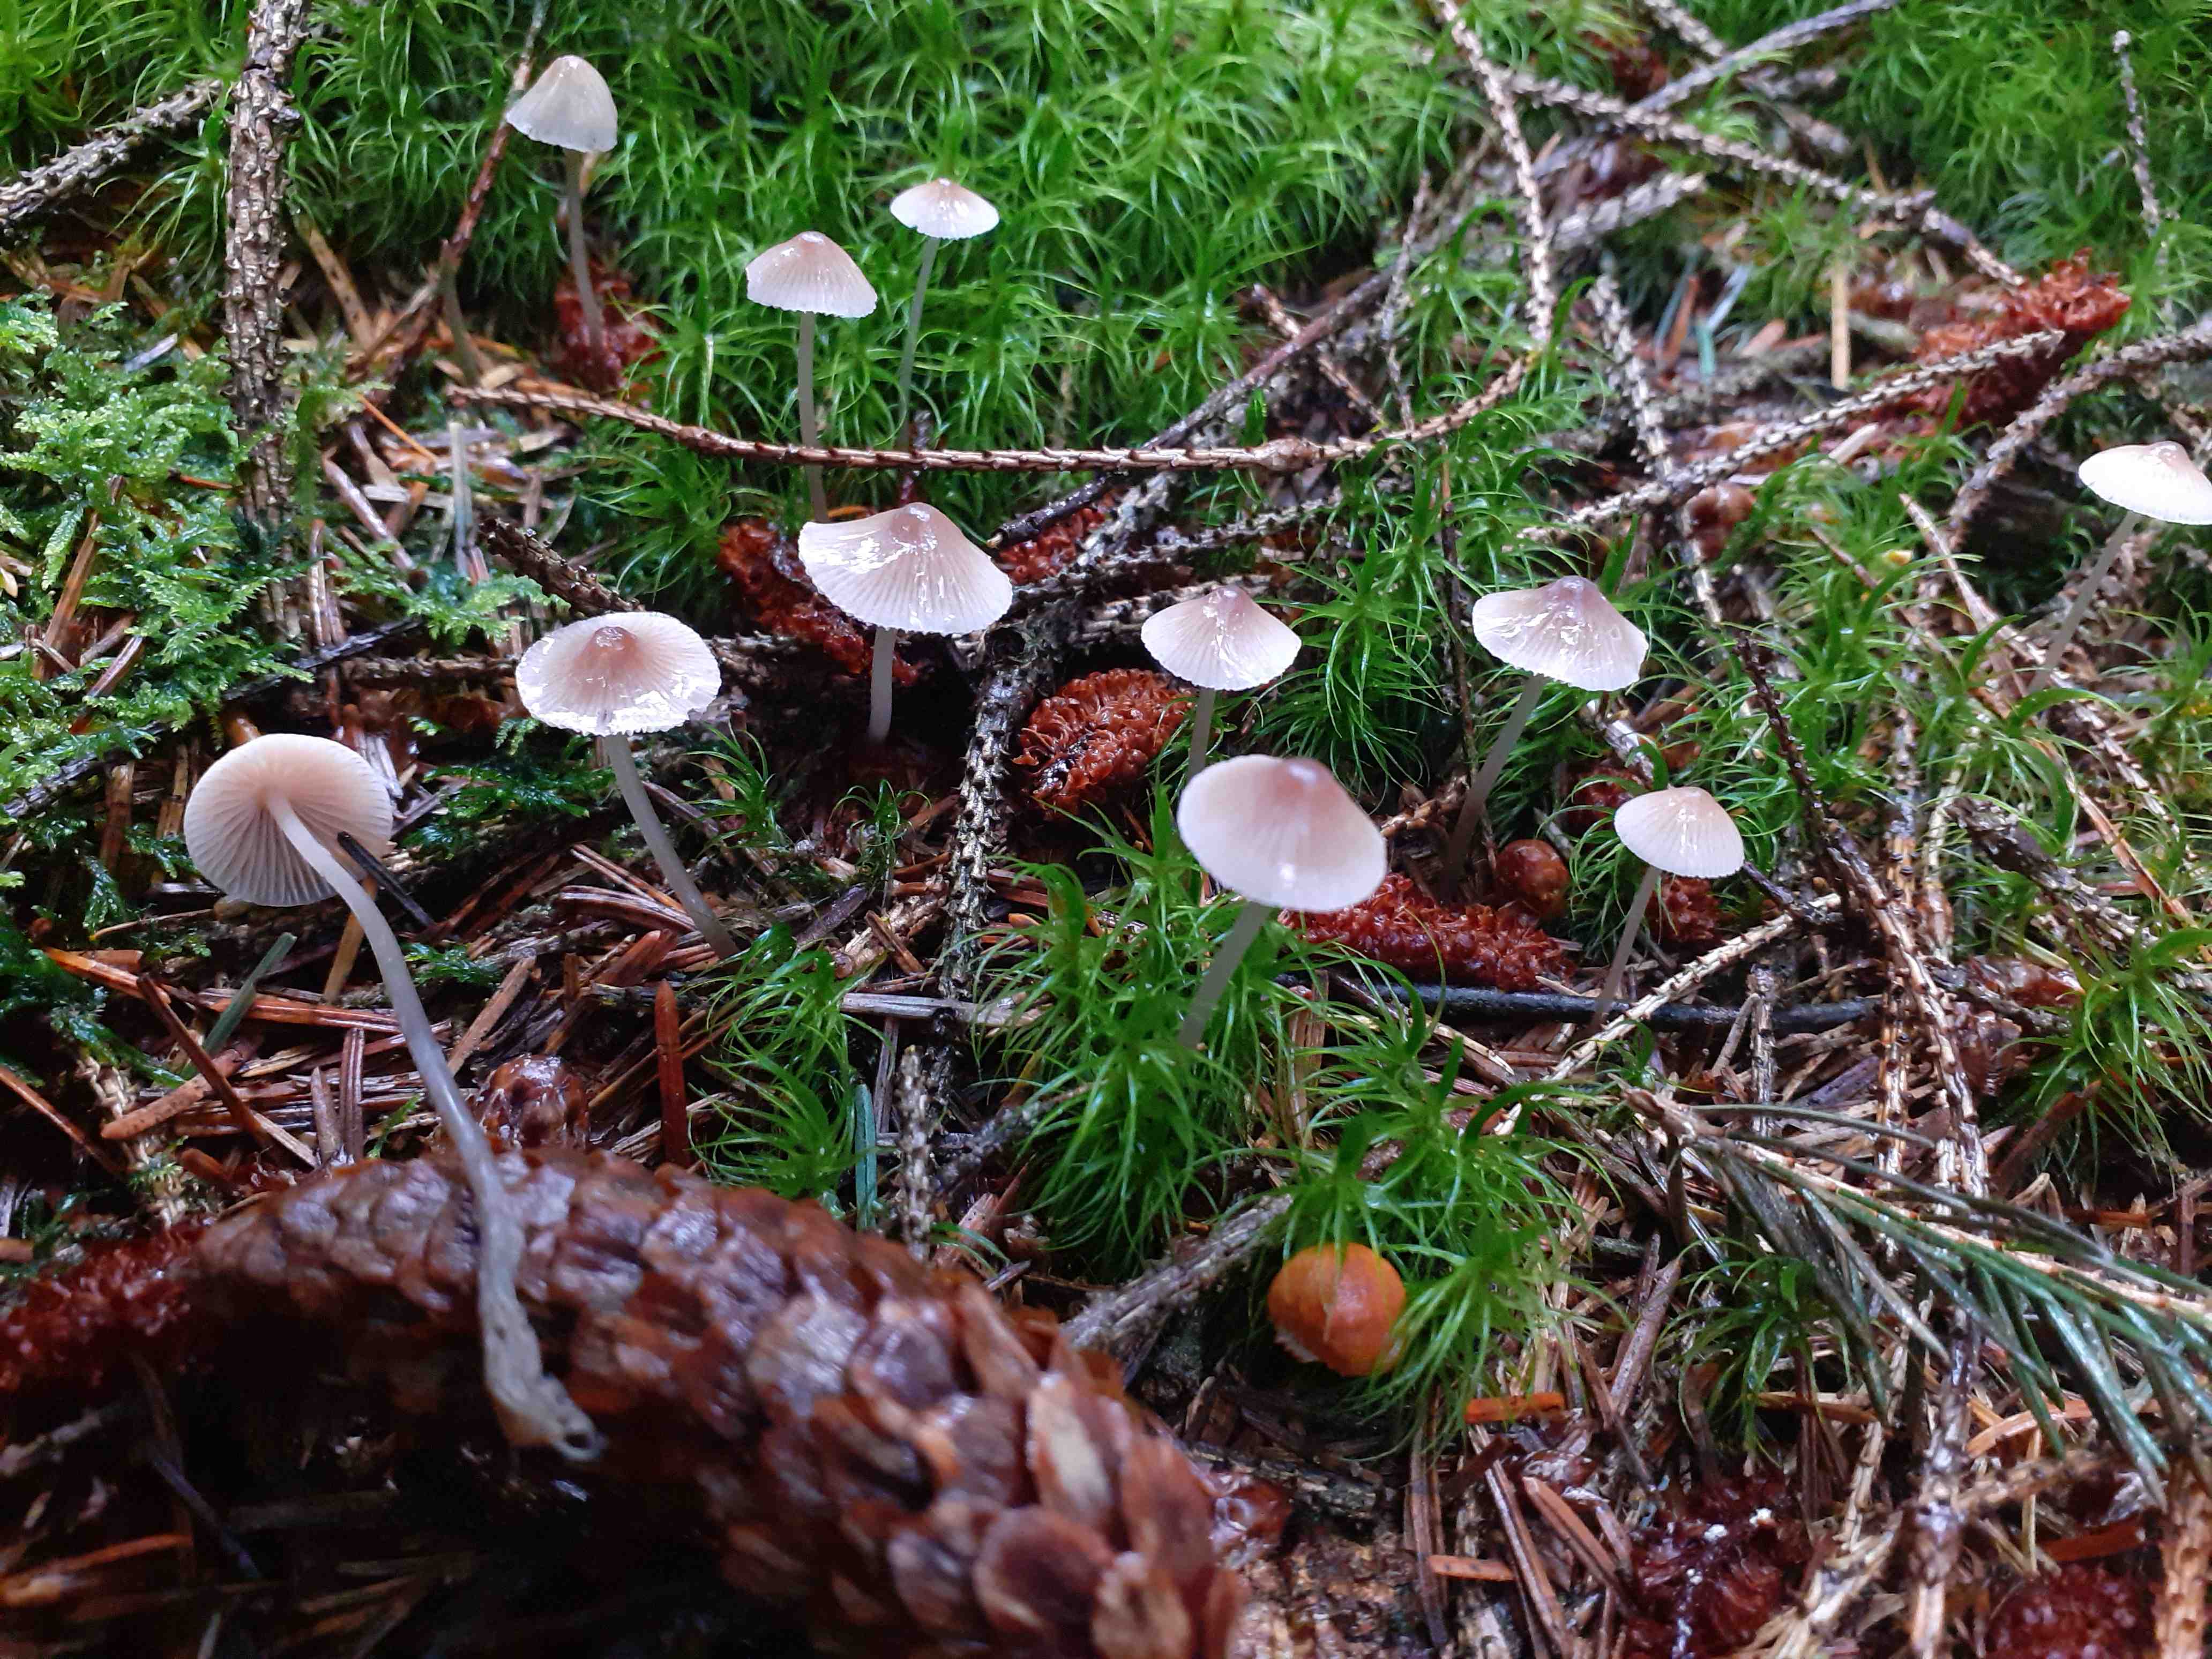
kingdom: Fungi
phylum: Basidiomycota
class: Agaricomycetes
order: Agaricales
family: Mycenaceae
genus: Mycena
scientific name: Mycena metata
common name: rødlig huesvamp
